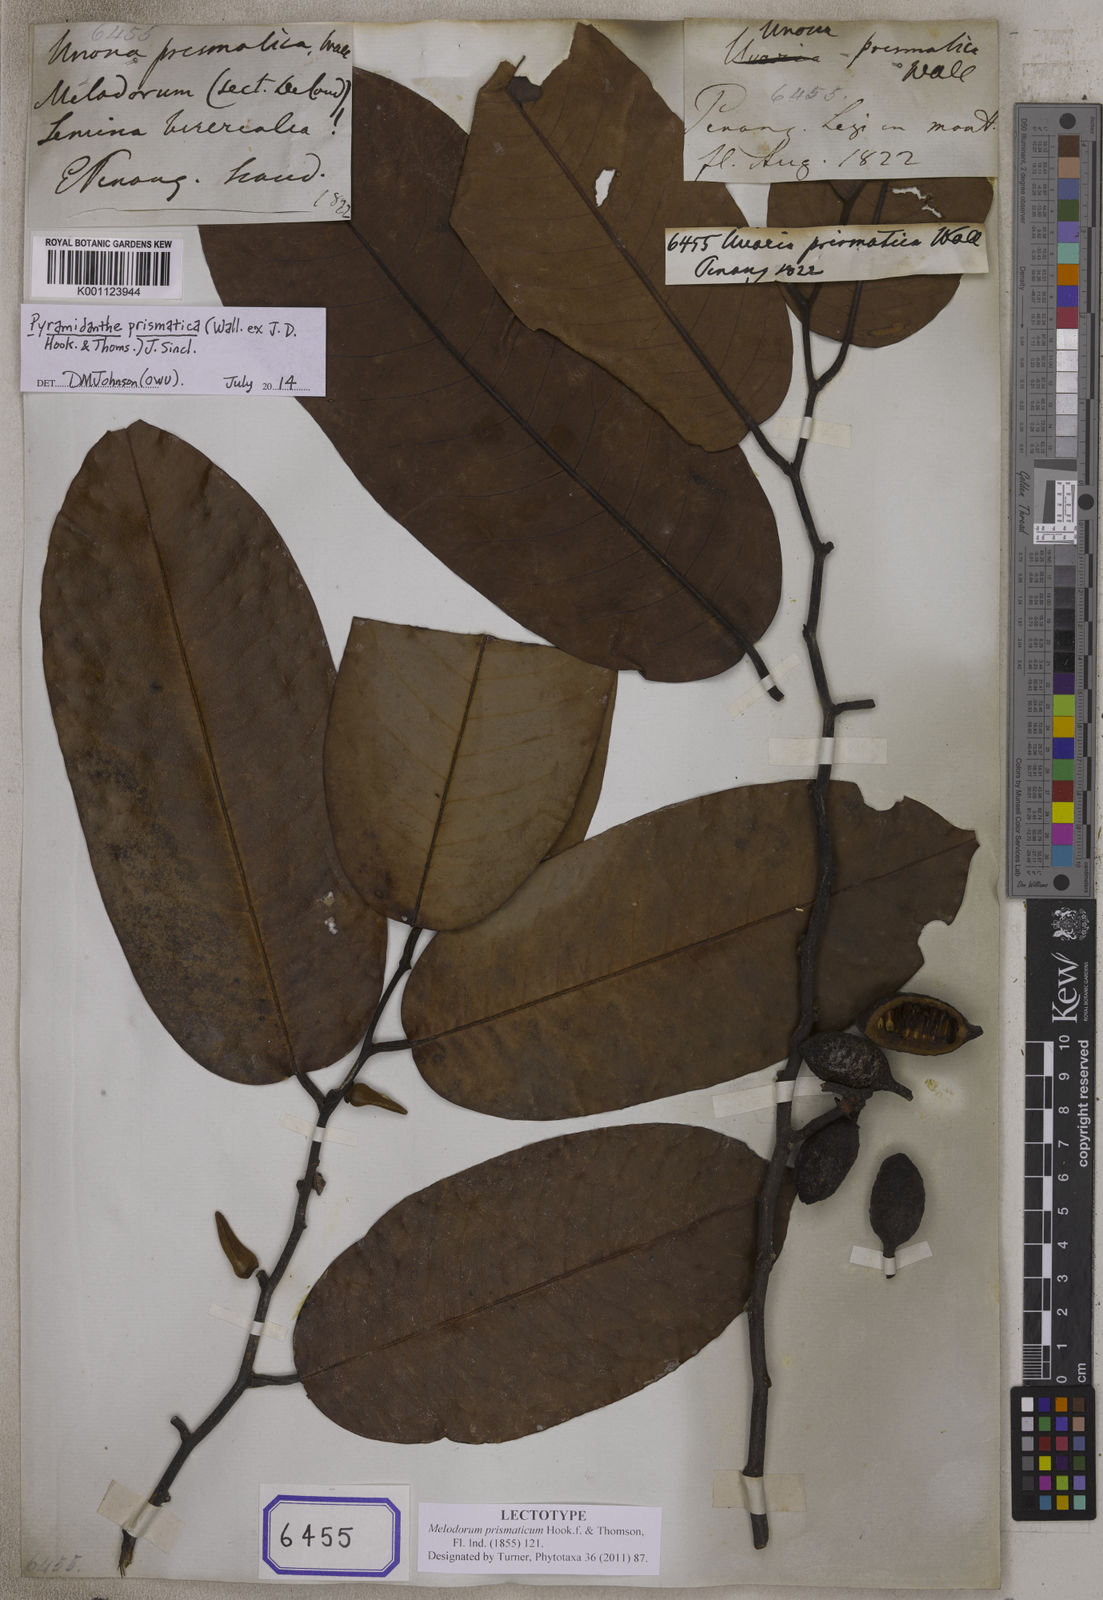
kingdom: Plantae
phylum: Tracheophyta
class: Magnoliopsida
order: Magnoliales
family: Annonaceae
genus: Pyramidanthe
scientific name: Pyramidanthe prismatica
